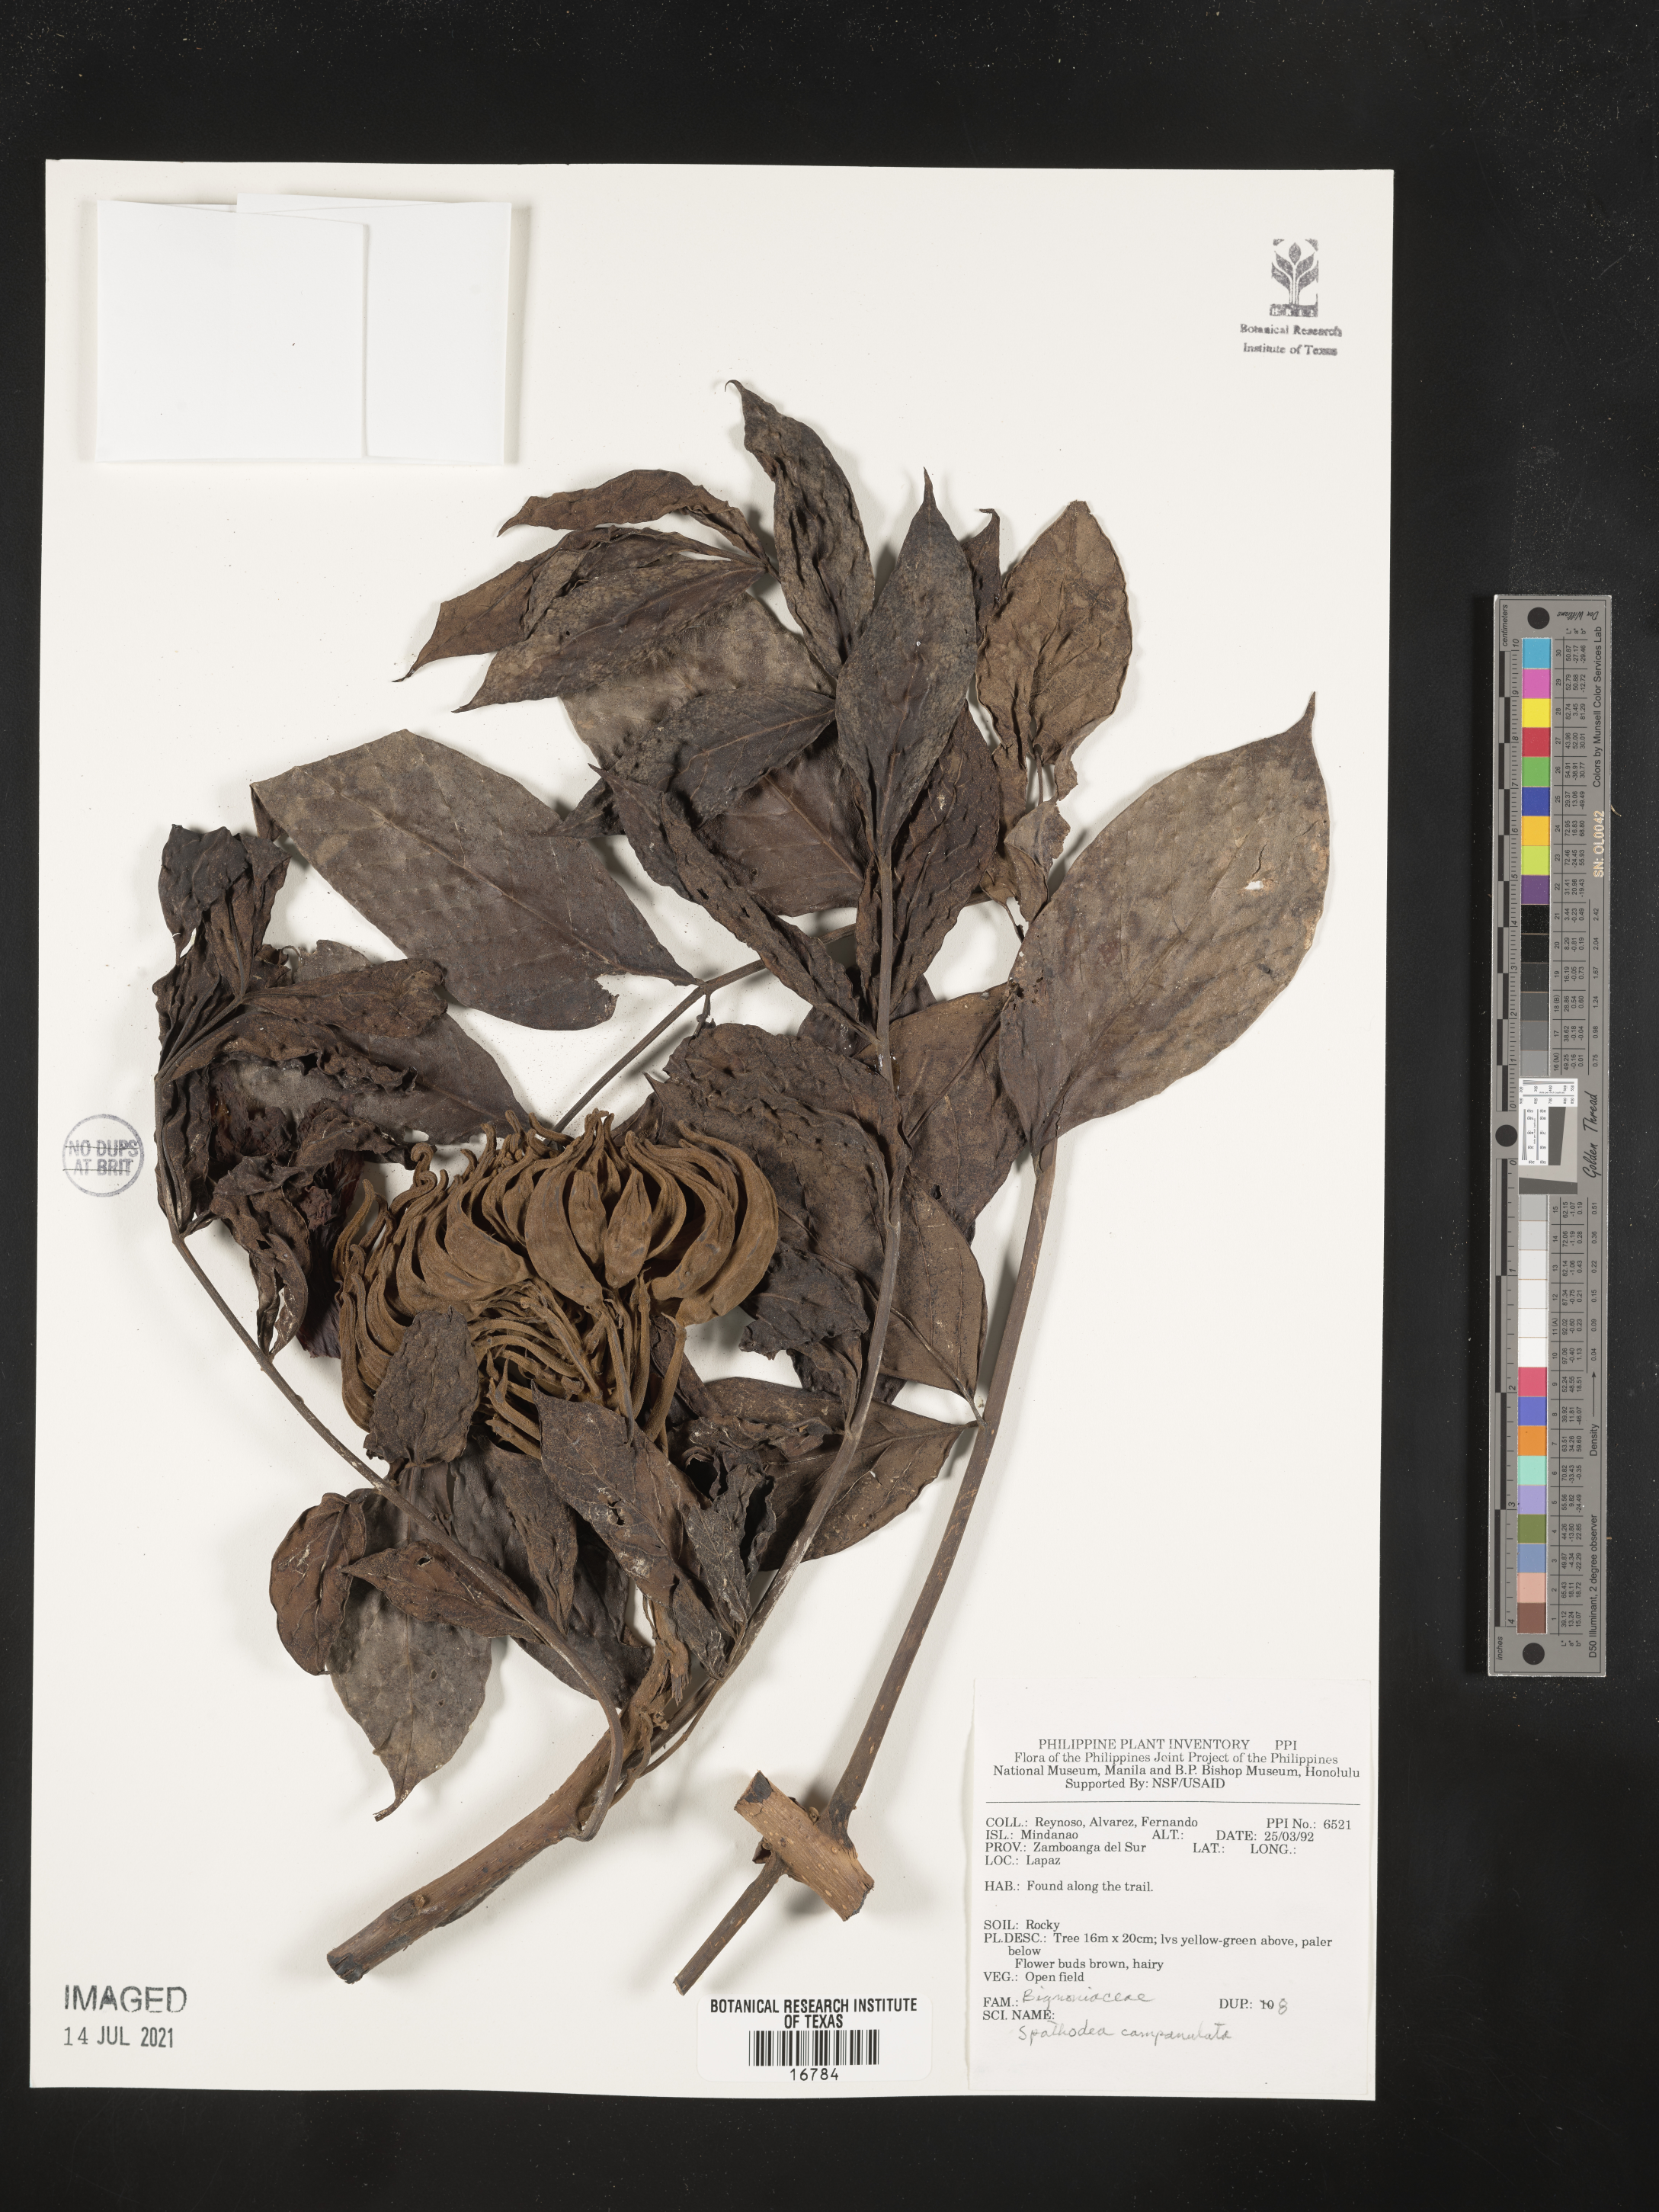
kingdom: Plantae
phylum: Tracheophyta
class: Magnoliopsida
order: Lamiales
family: Bignoniaceae
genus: Spathodea
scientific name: Spathodea campanulata
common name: African tuliptree
